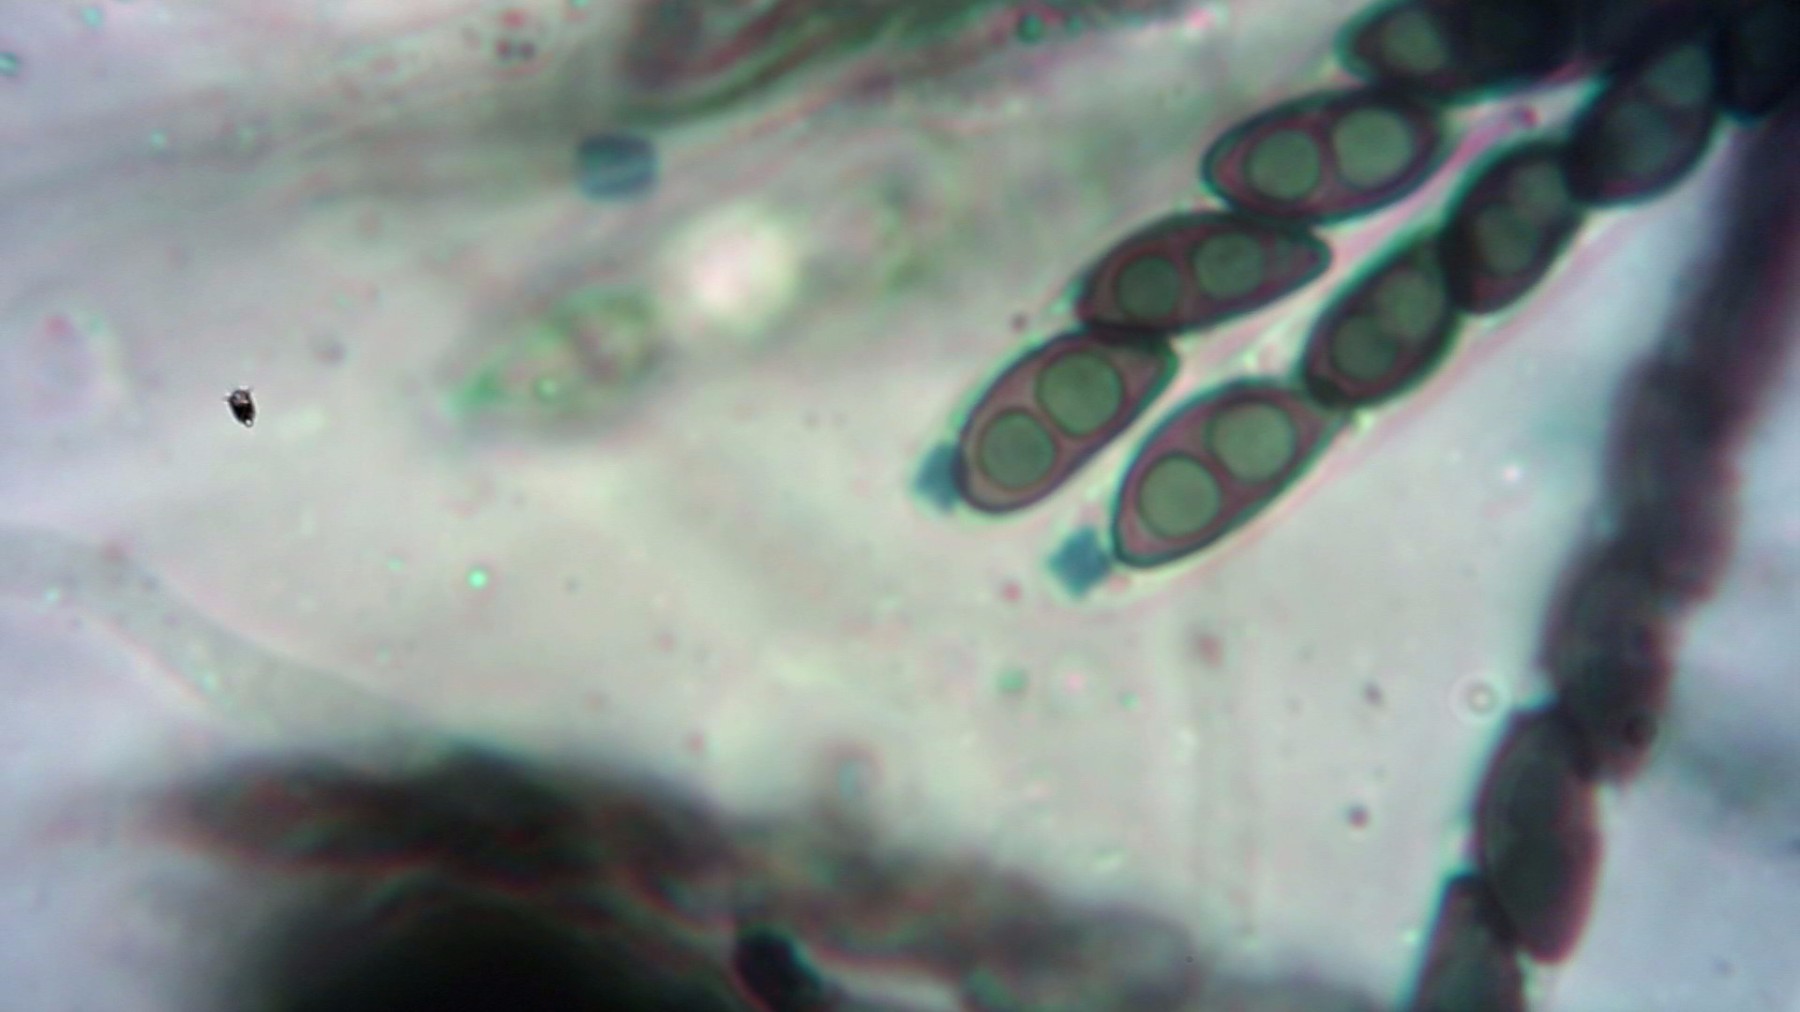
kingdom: Fungi
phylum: Ascomycota
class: Sordariomycetes
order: Xylariales
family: Xylariaceae
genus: Nemania
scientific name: Nemania atropurpurea
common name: purpursort kuldyne
